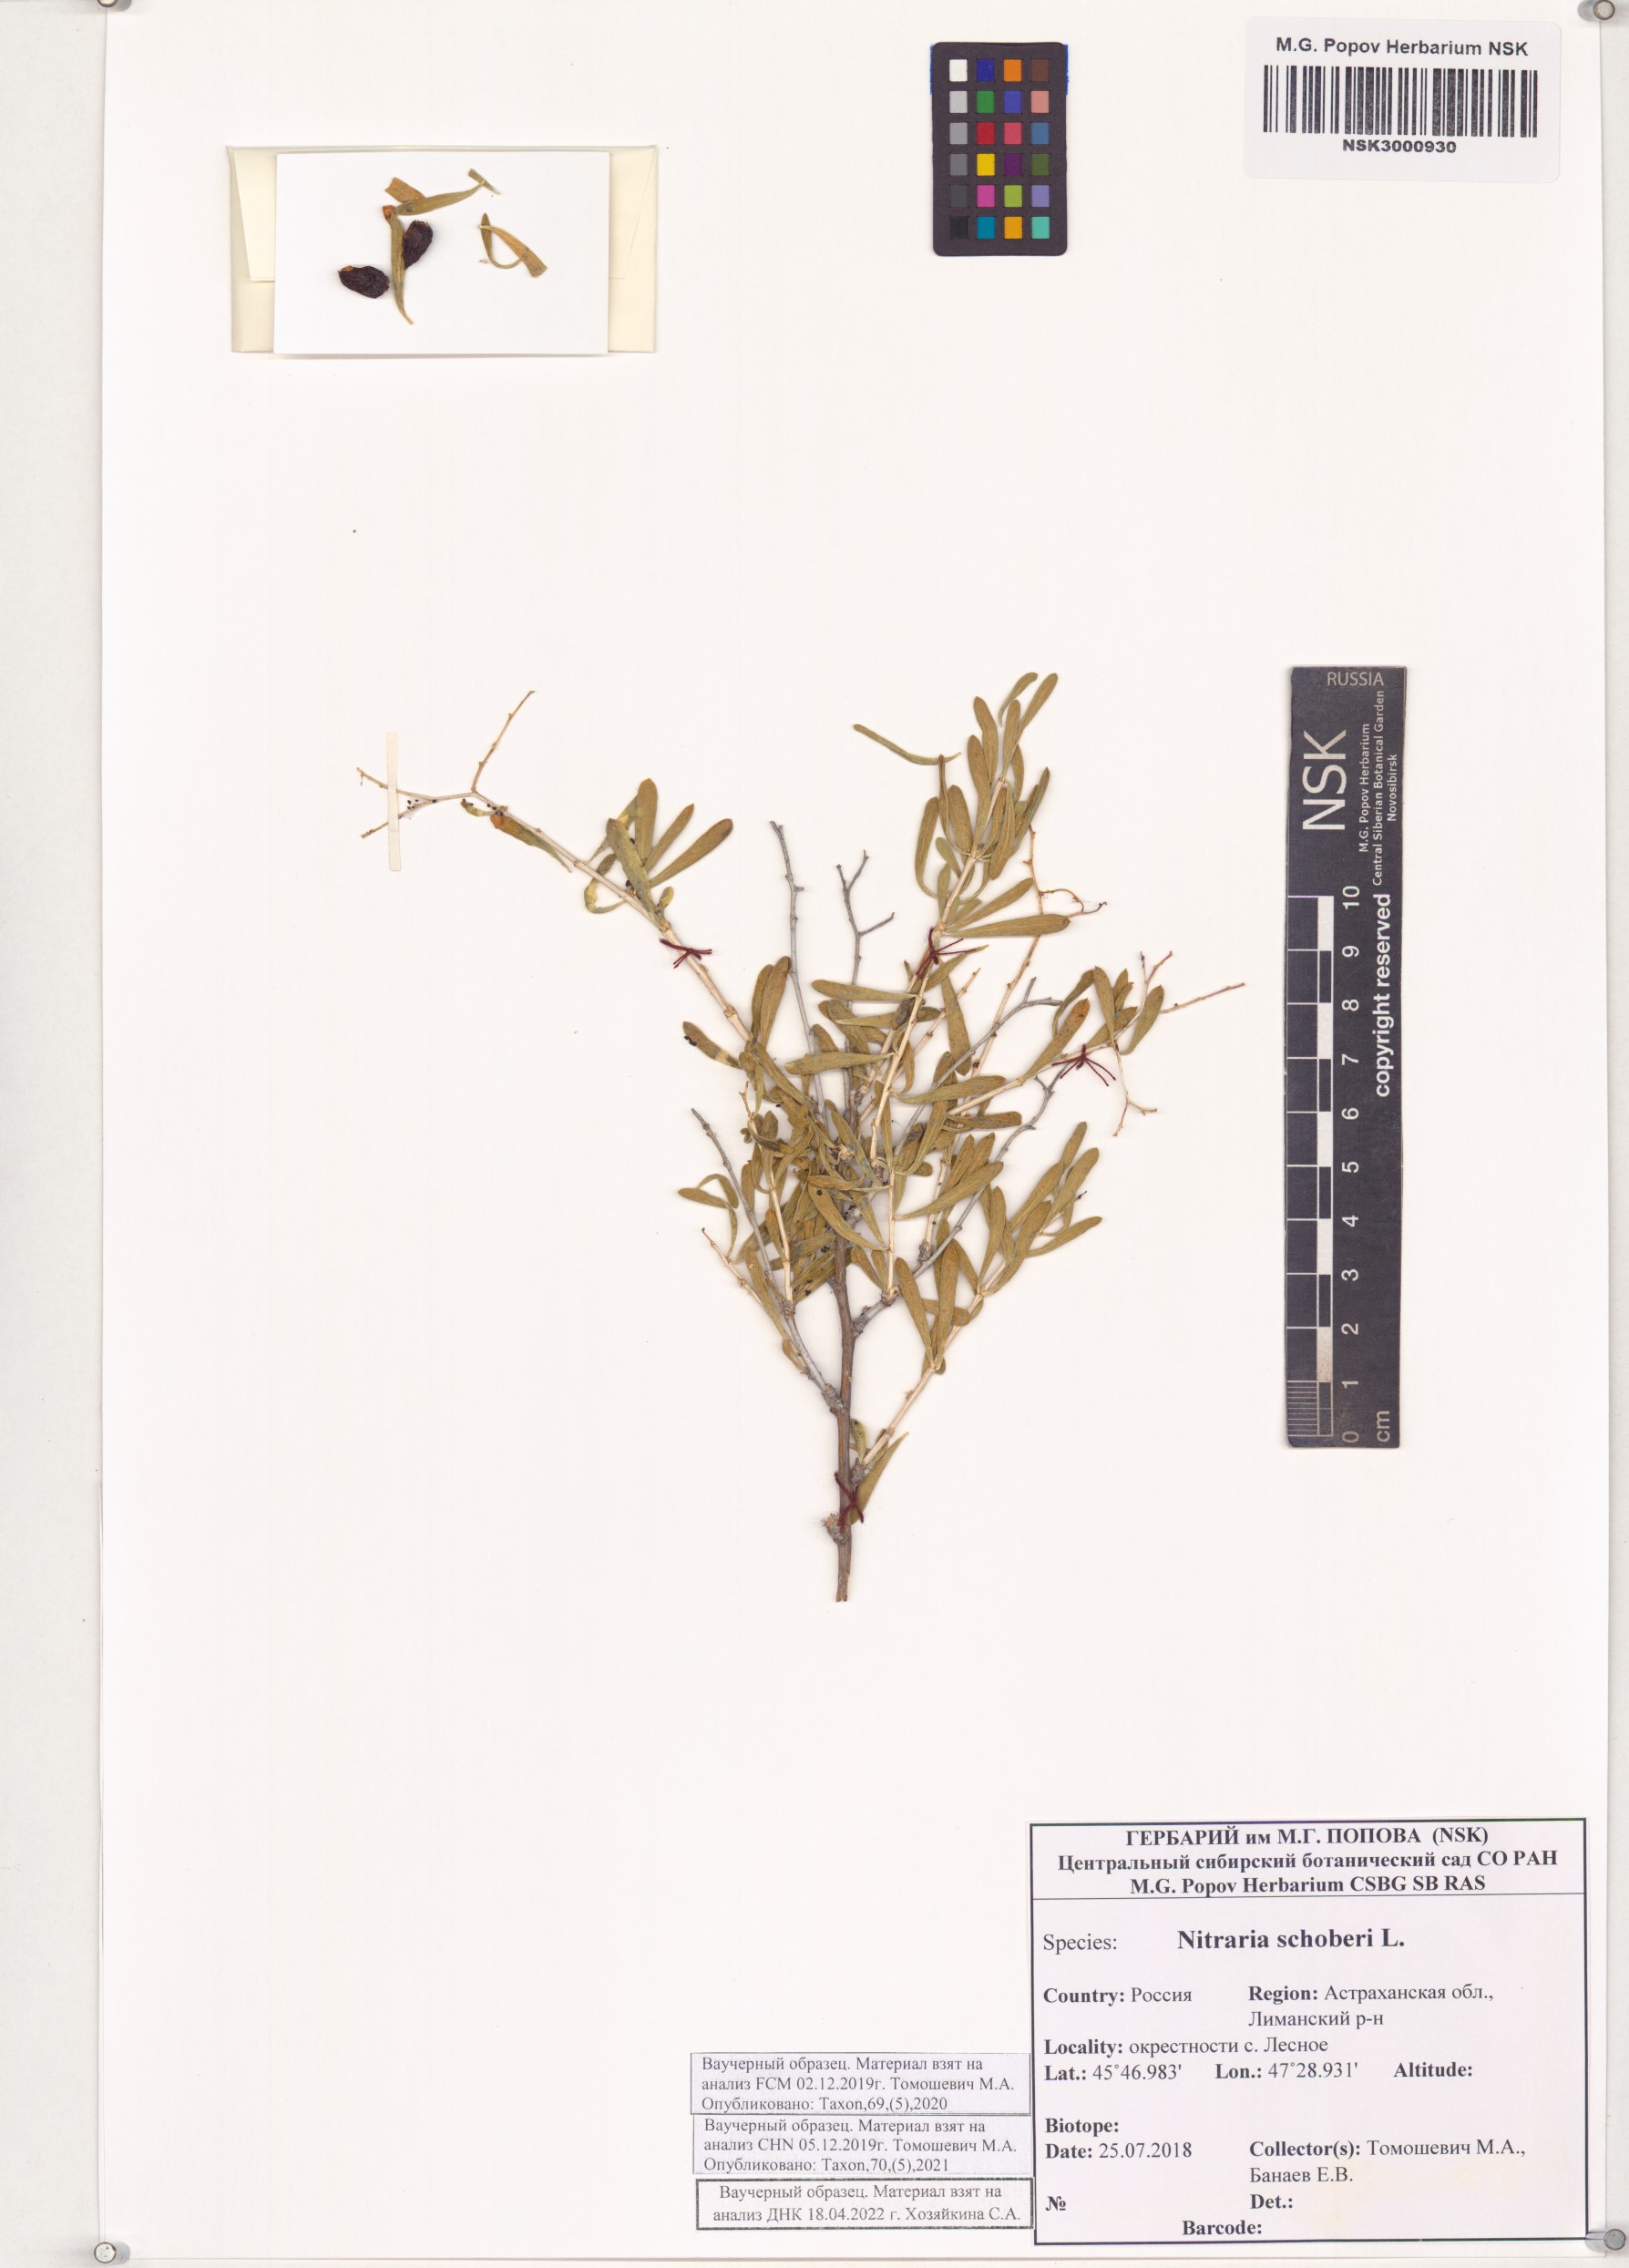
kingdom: Plantae
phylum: Tracheophyta
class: Magnoliopsida
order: Sapindales
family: Nitrariaceae
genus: Nitraria
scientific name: Nitraria schoberi
